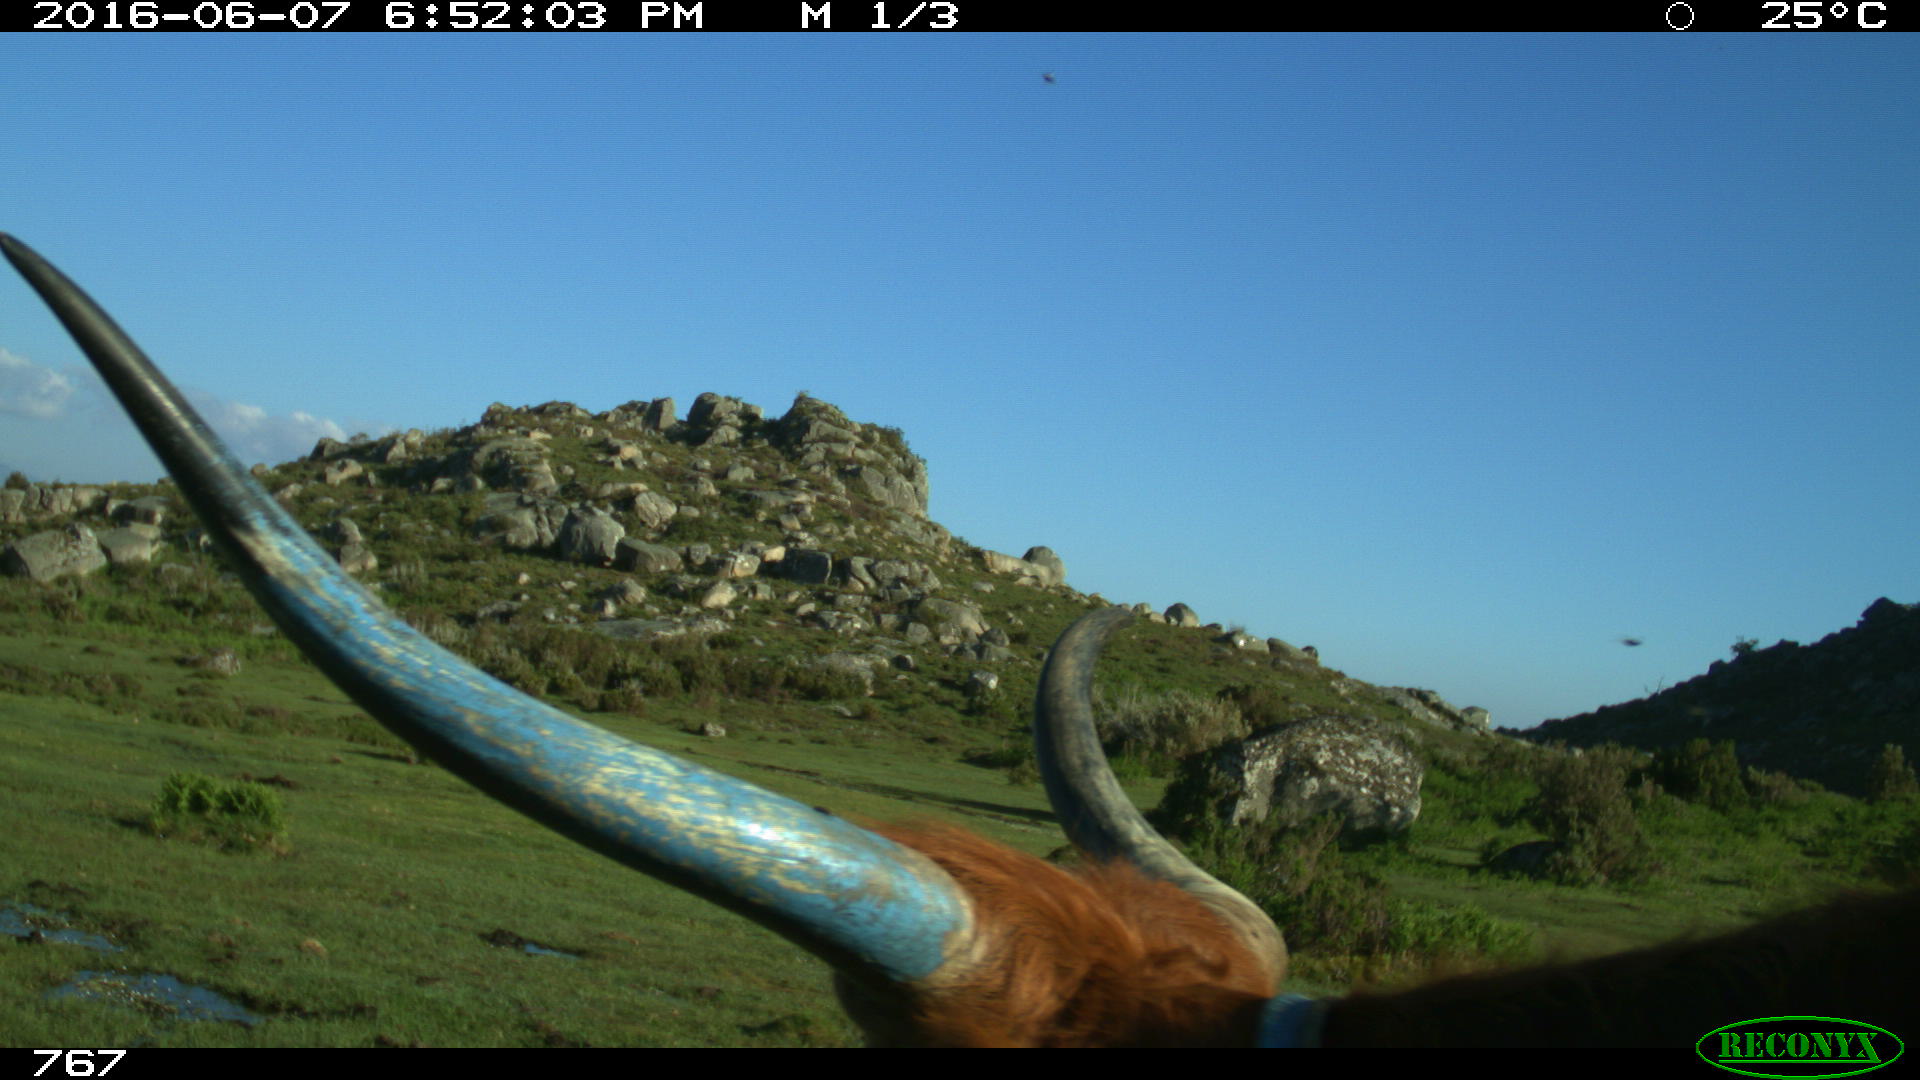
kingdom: Animalia
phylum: Chordata
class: Mammalia
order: Artiodactyla
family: Bovidae
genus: Bos
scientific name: Bos taurus
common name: Domesticated cattle
